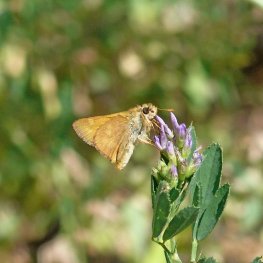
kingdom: Animalia
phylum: Arthropoda
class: Insecta
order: Lepidoptera
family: Hesperiidae
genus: Ochlodes
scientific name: Ochlodes sylvanoides
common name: Woodland Skipper
